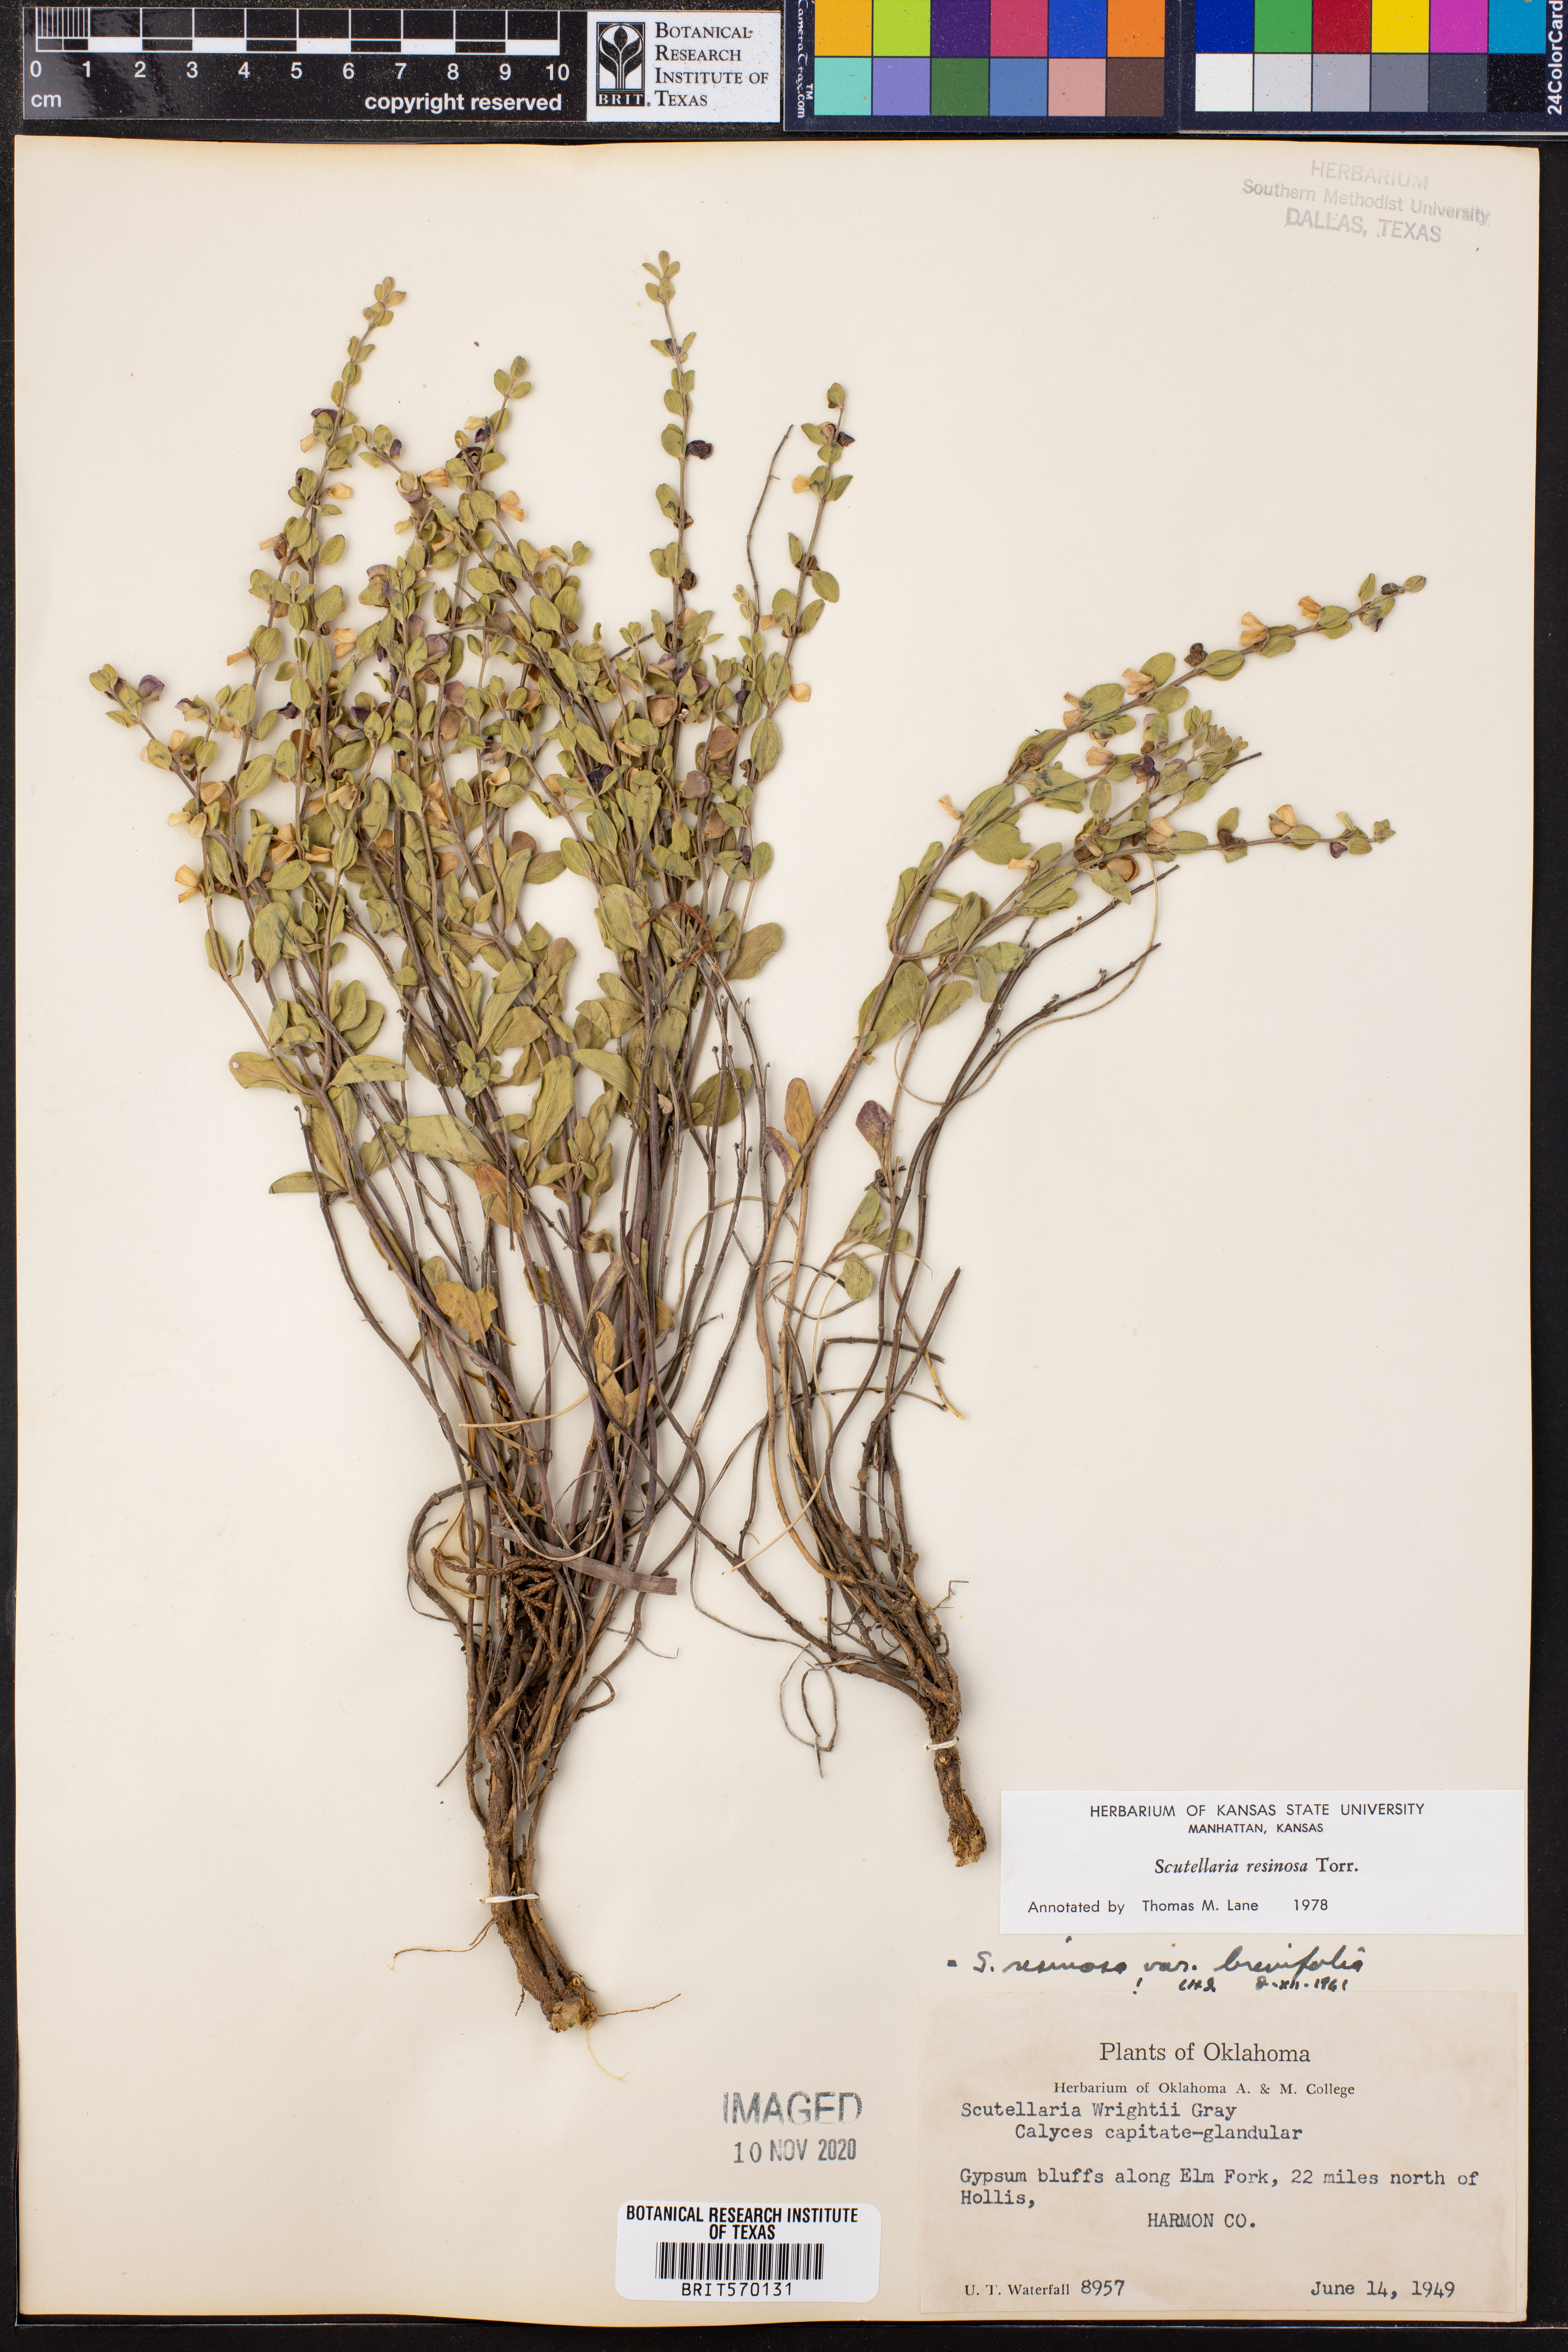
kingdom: Plantae
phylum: Tracheophyta
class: Magnoliopsida
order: Lamiales
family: Lamiaceae
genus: Scutellaria
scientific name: Scutellaria resinosa
